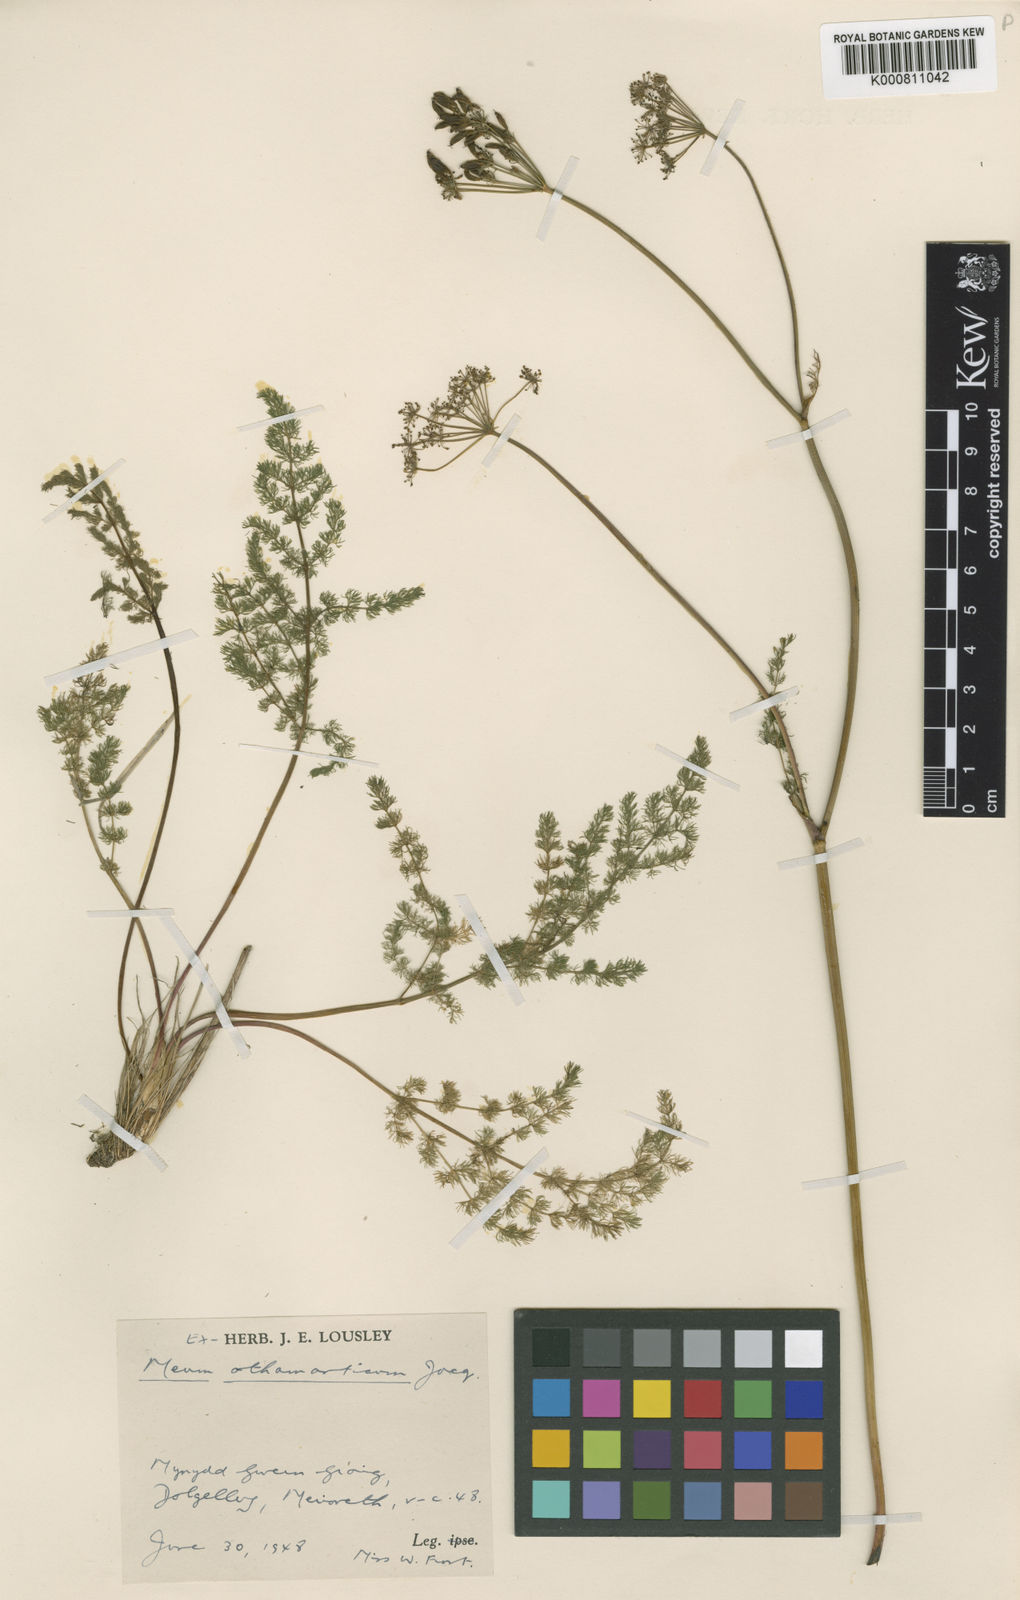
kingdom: Plantae
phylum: Tracheophyta
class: Magnoliopsida
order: Apiales
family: Apiaceae
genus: Meum
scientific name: Meum athamanticum
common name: Spignel
